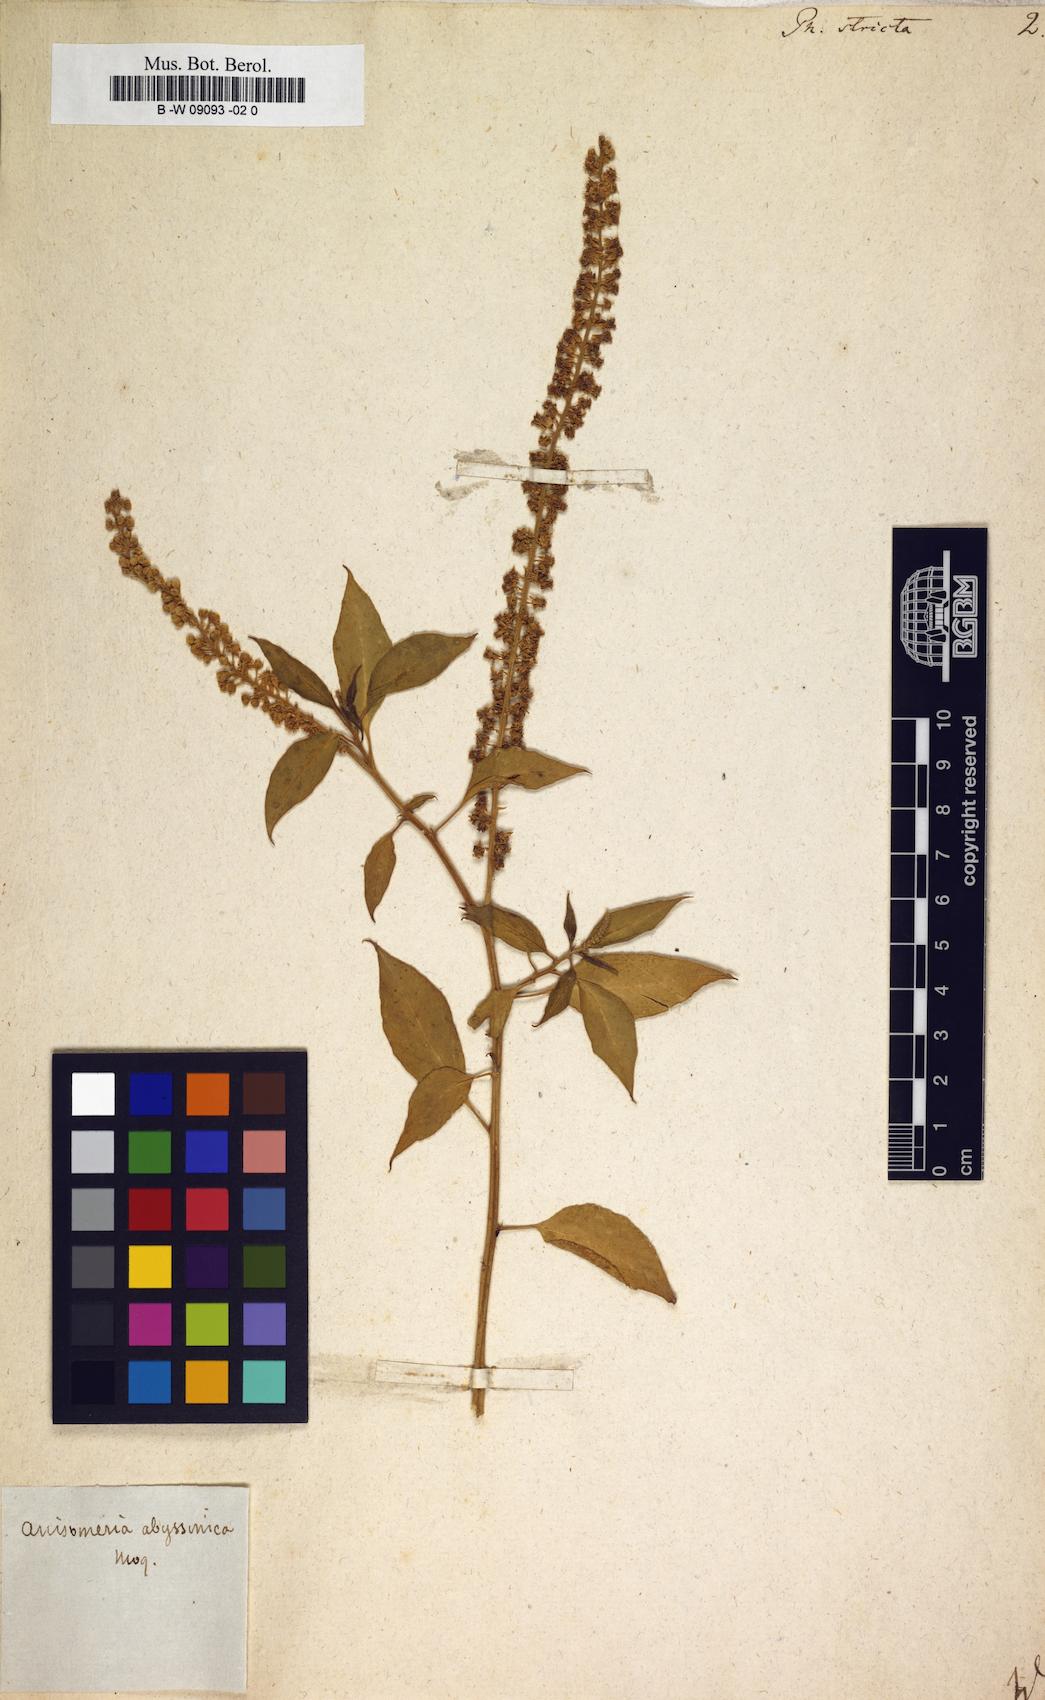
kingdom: Plantae
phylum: Tracheophyta
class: Magnoliopsida
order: Caryophyllales
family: Phytolaccaceae
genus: Phytolacca
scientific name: Phytolacca heptandra
